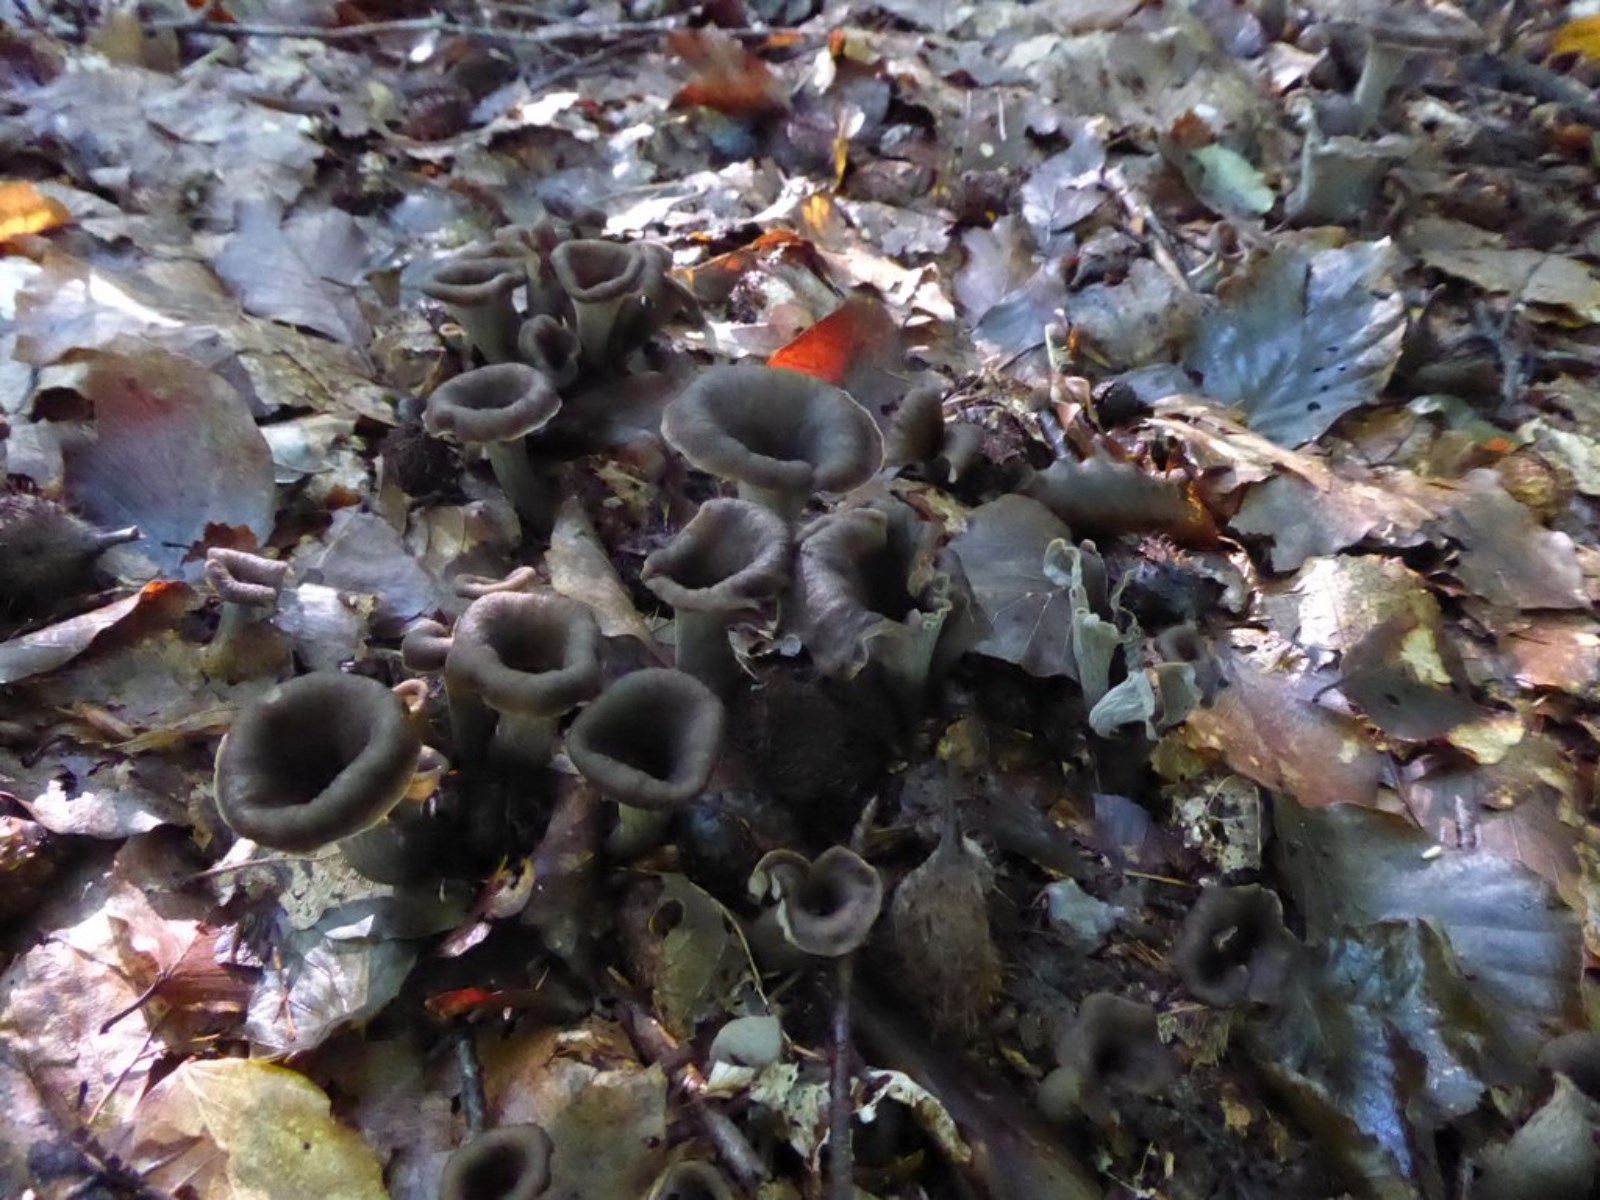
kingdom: Fungi
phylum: Basidiomycota
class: Agaricomycetes
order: Cantharellales
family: Hydnaceae
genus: Craterellus
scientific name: Craterellus cornucopioides
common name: trompetsvamp
